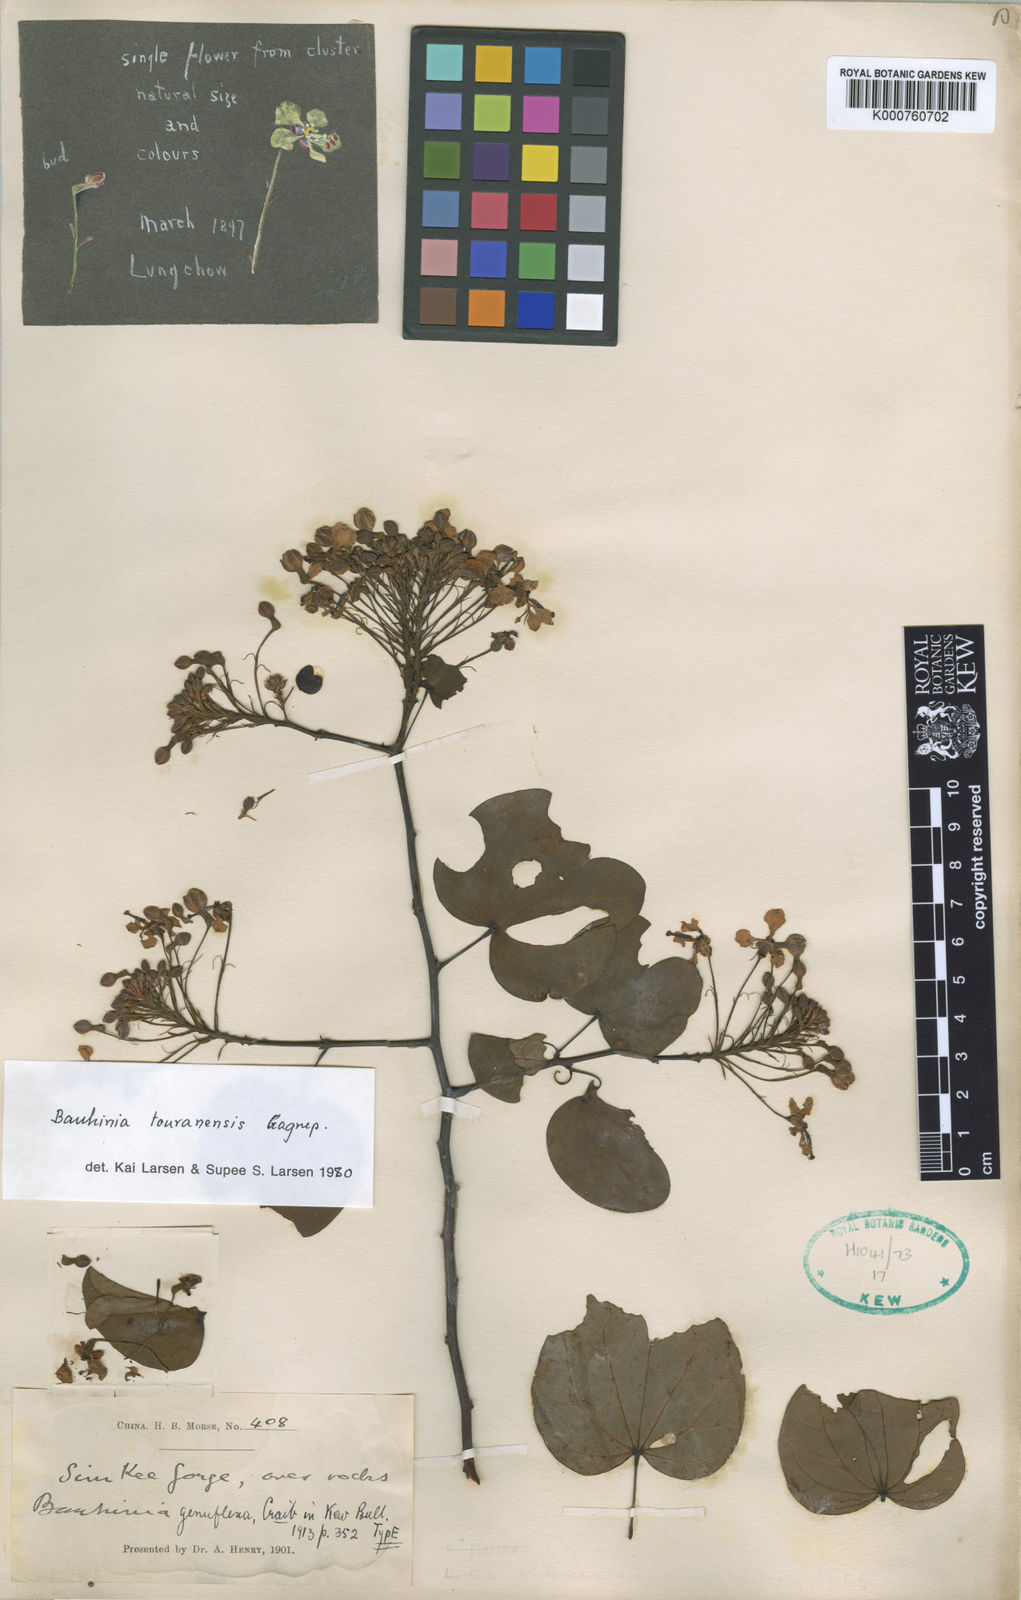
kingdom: Plantae
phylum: Tracheophyta
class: Magnoliopsida
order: Fabales
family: Fabaceae
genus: Cheniella
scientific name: Cheniella touranensis
